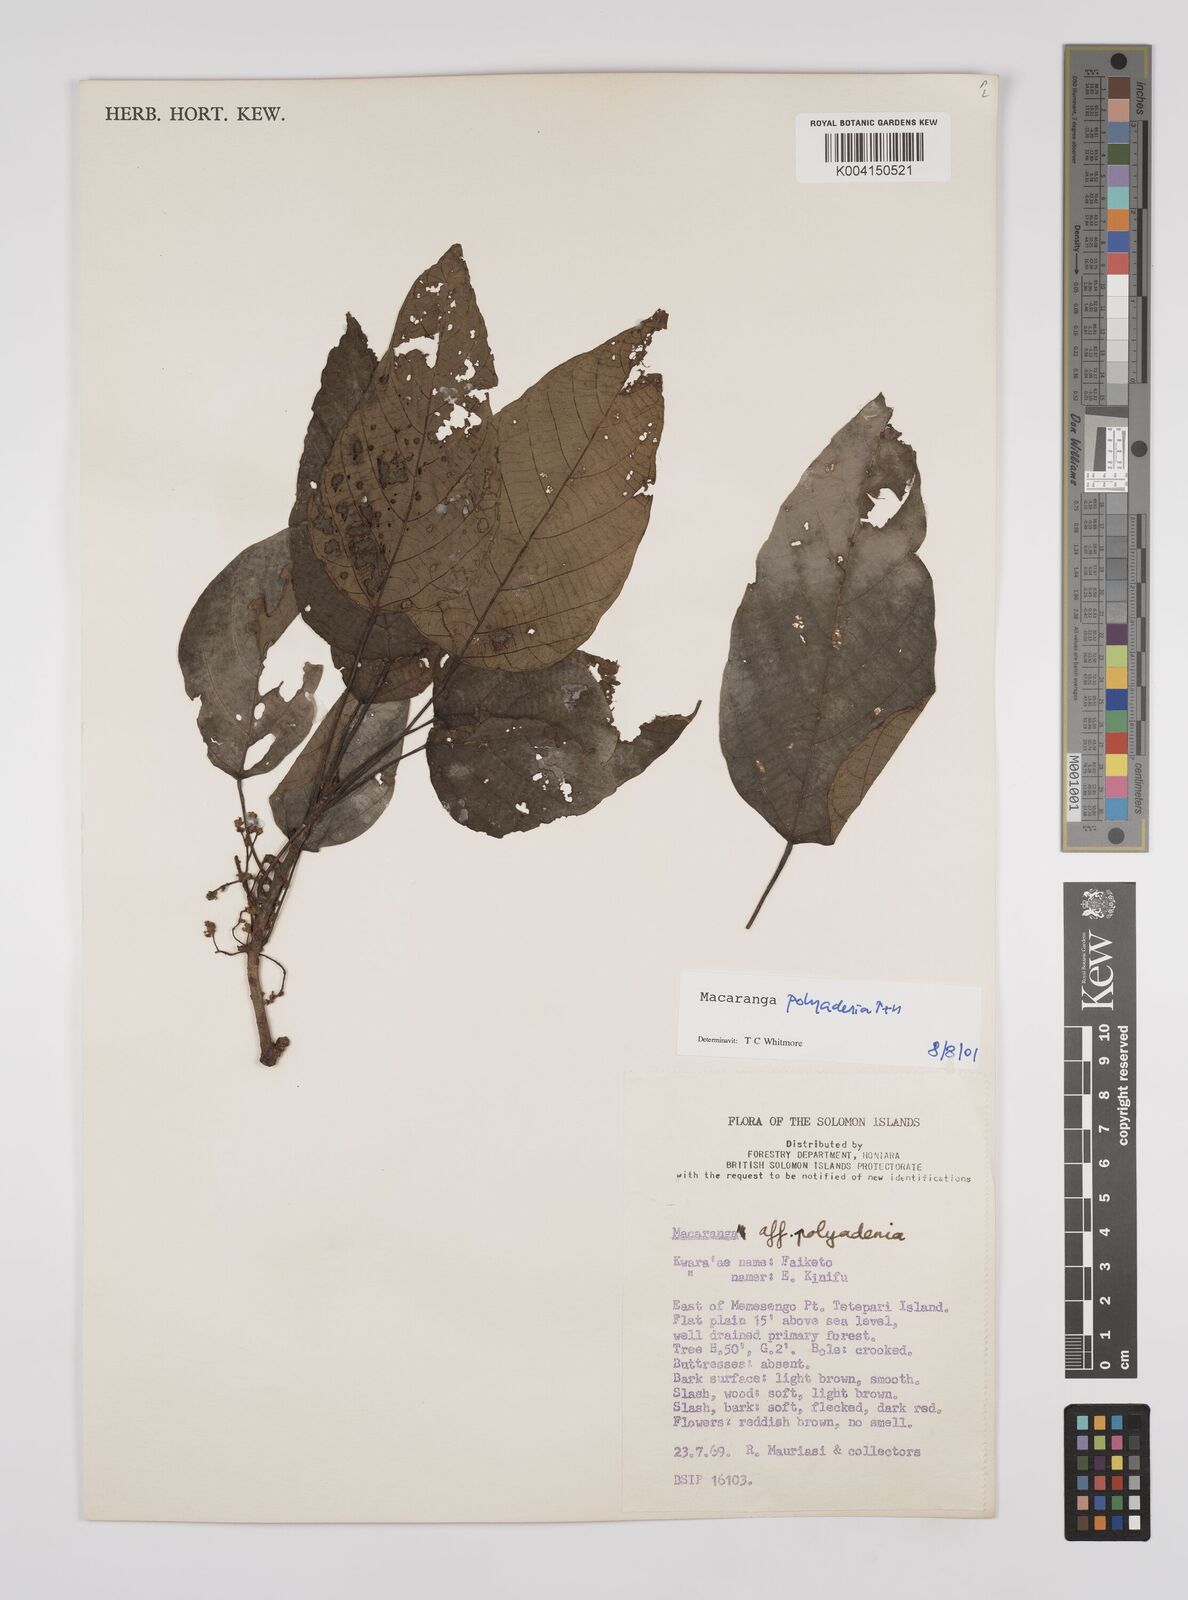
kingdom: Plantae
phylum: Tracheophyta
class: Magnoliopsida
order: Malpighiales
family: Euphorbiaceae
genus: Macaranga
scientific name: Macaranga polyadenia
